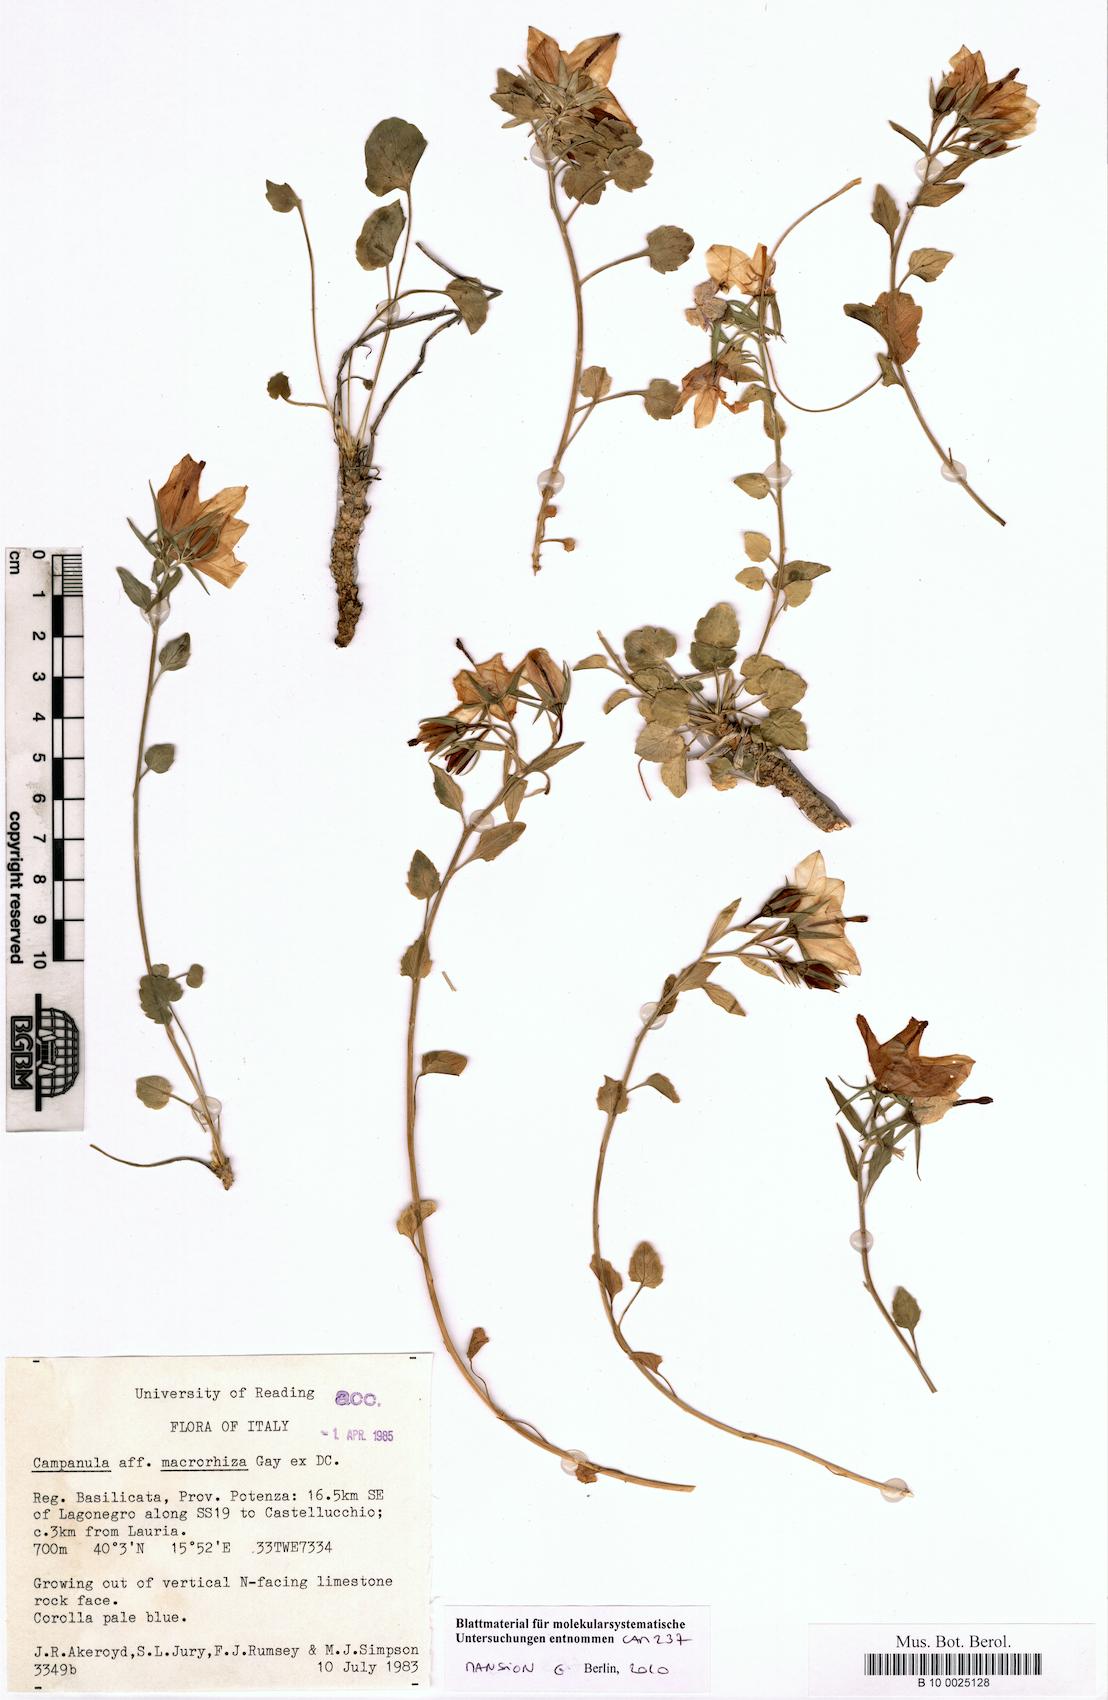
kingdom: Plantae
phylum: Tracheophyta
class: Magnoliopsida
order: Asterales
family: Campanulaceae
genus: Campanula
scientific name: Campanula macrorhiza
